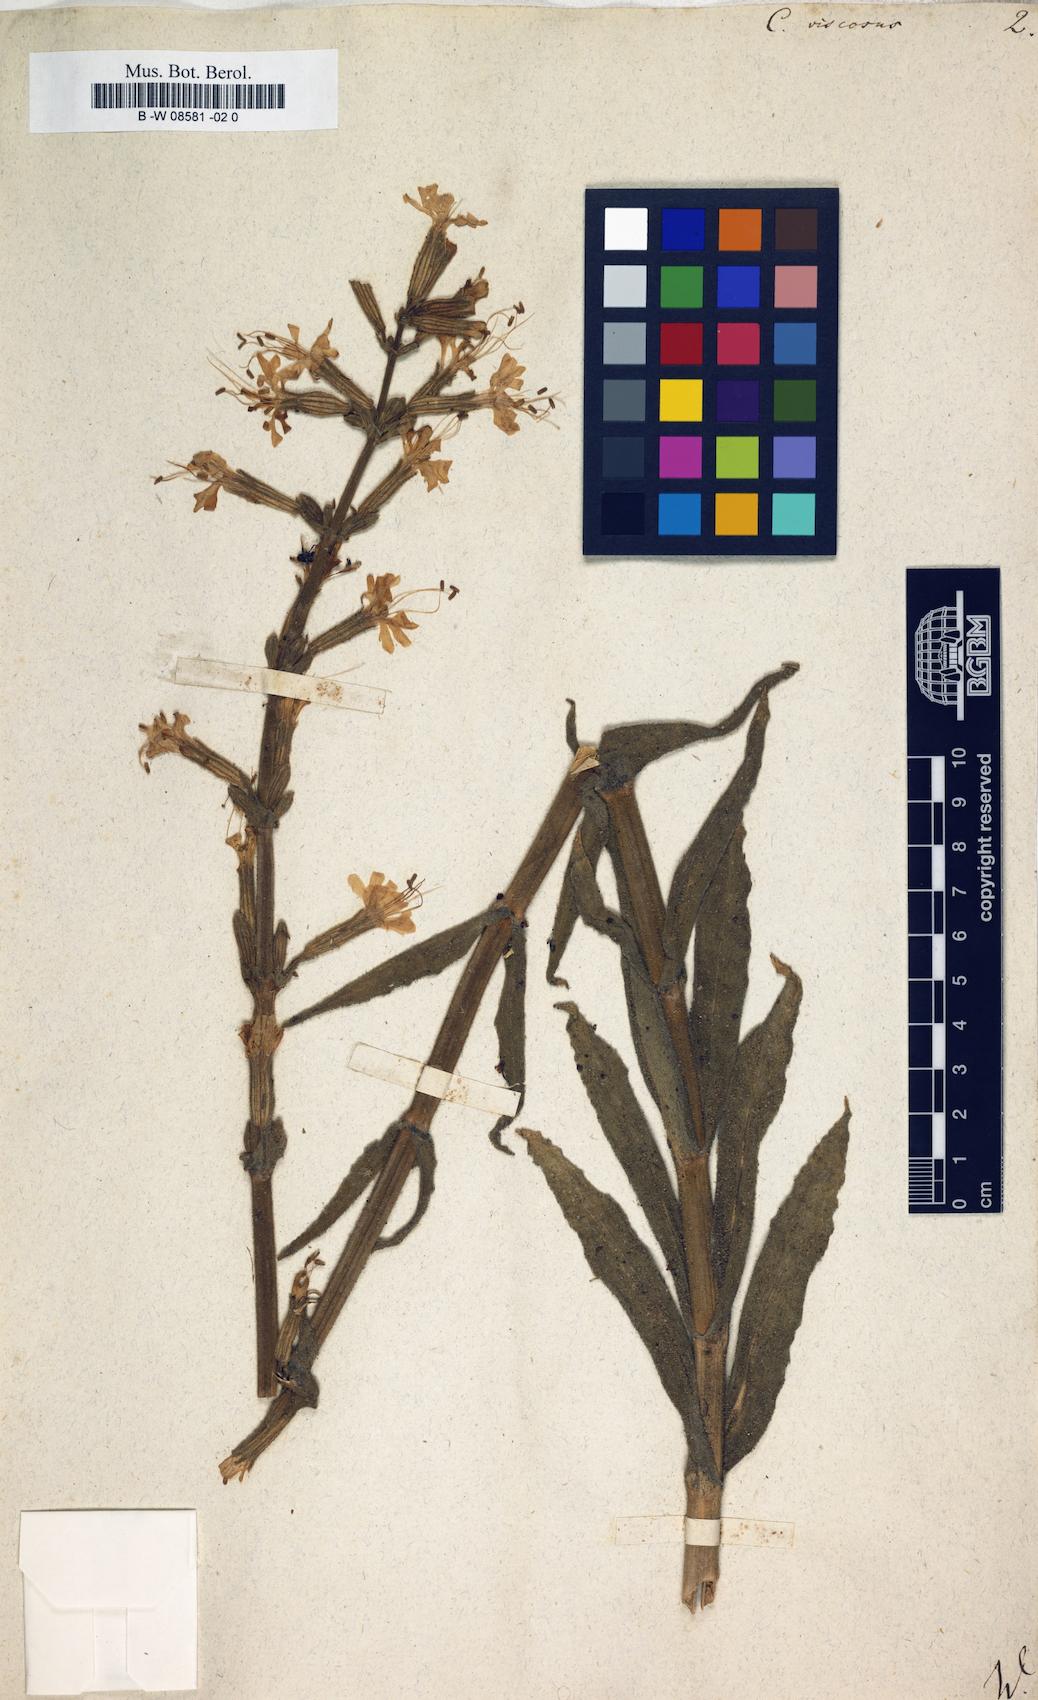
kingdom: Plantae
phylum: Tracheophyta
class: Magnoliopsida
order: Caryophyllales
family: Caryophyllaceae
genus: Silene
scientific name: Silene viscosa
